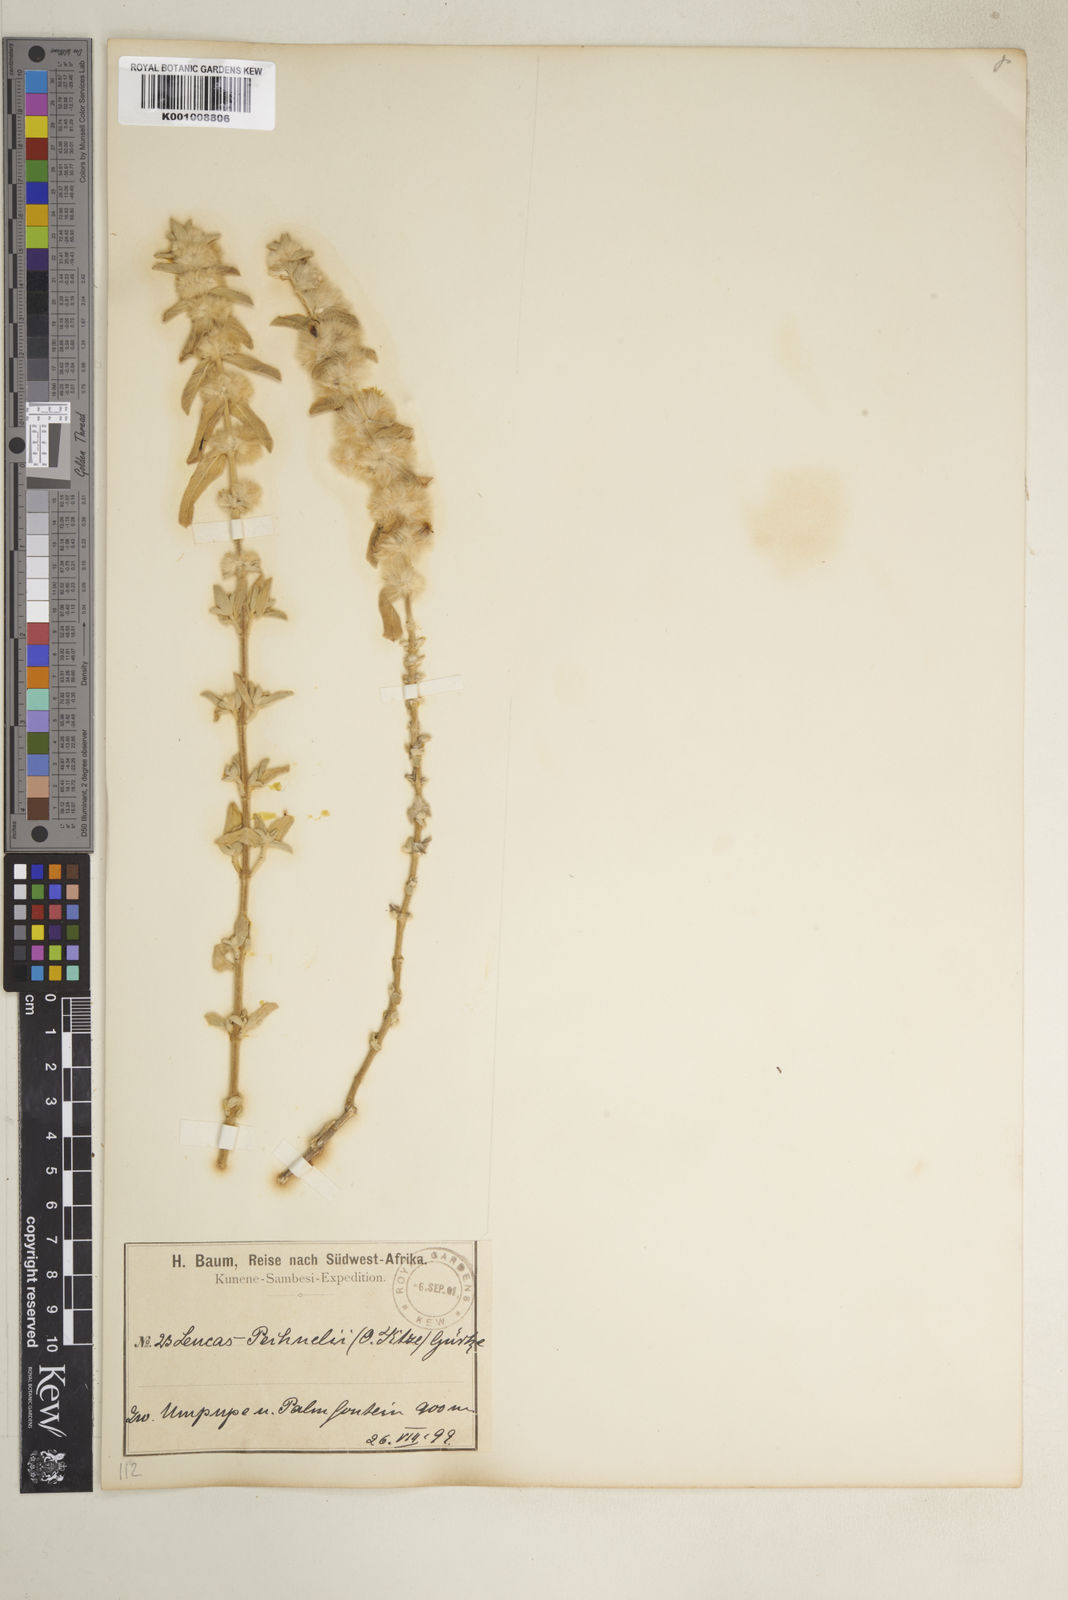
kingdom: Plantae
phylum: Tracheophyta
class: Magnoliopsida
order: Lamiales
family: Lamiaceae
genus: Leucas
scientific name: Leucas pechuelii
